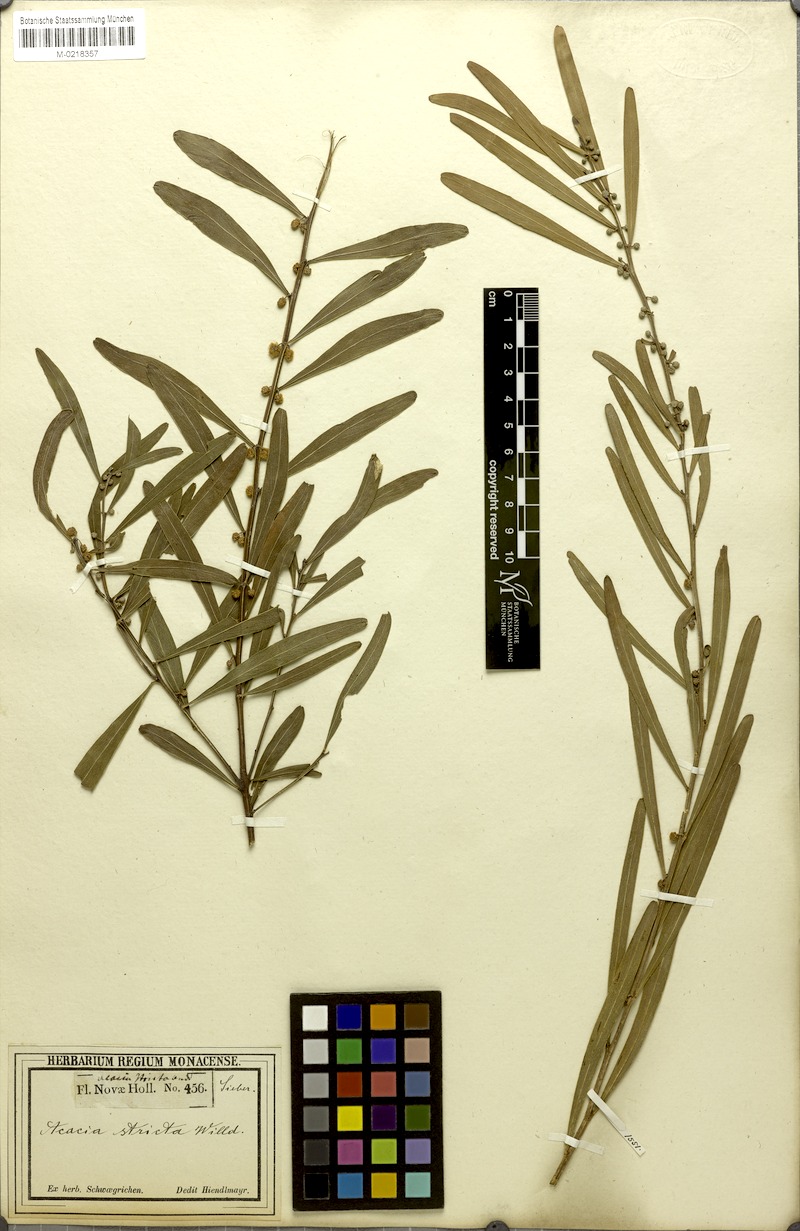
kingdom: Plantae
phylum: Tracheophyta
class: Magnoliopsida
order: Fabales
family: Fabaceae
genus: Acacia
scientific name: Acacia stricta
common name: Hop wattle
